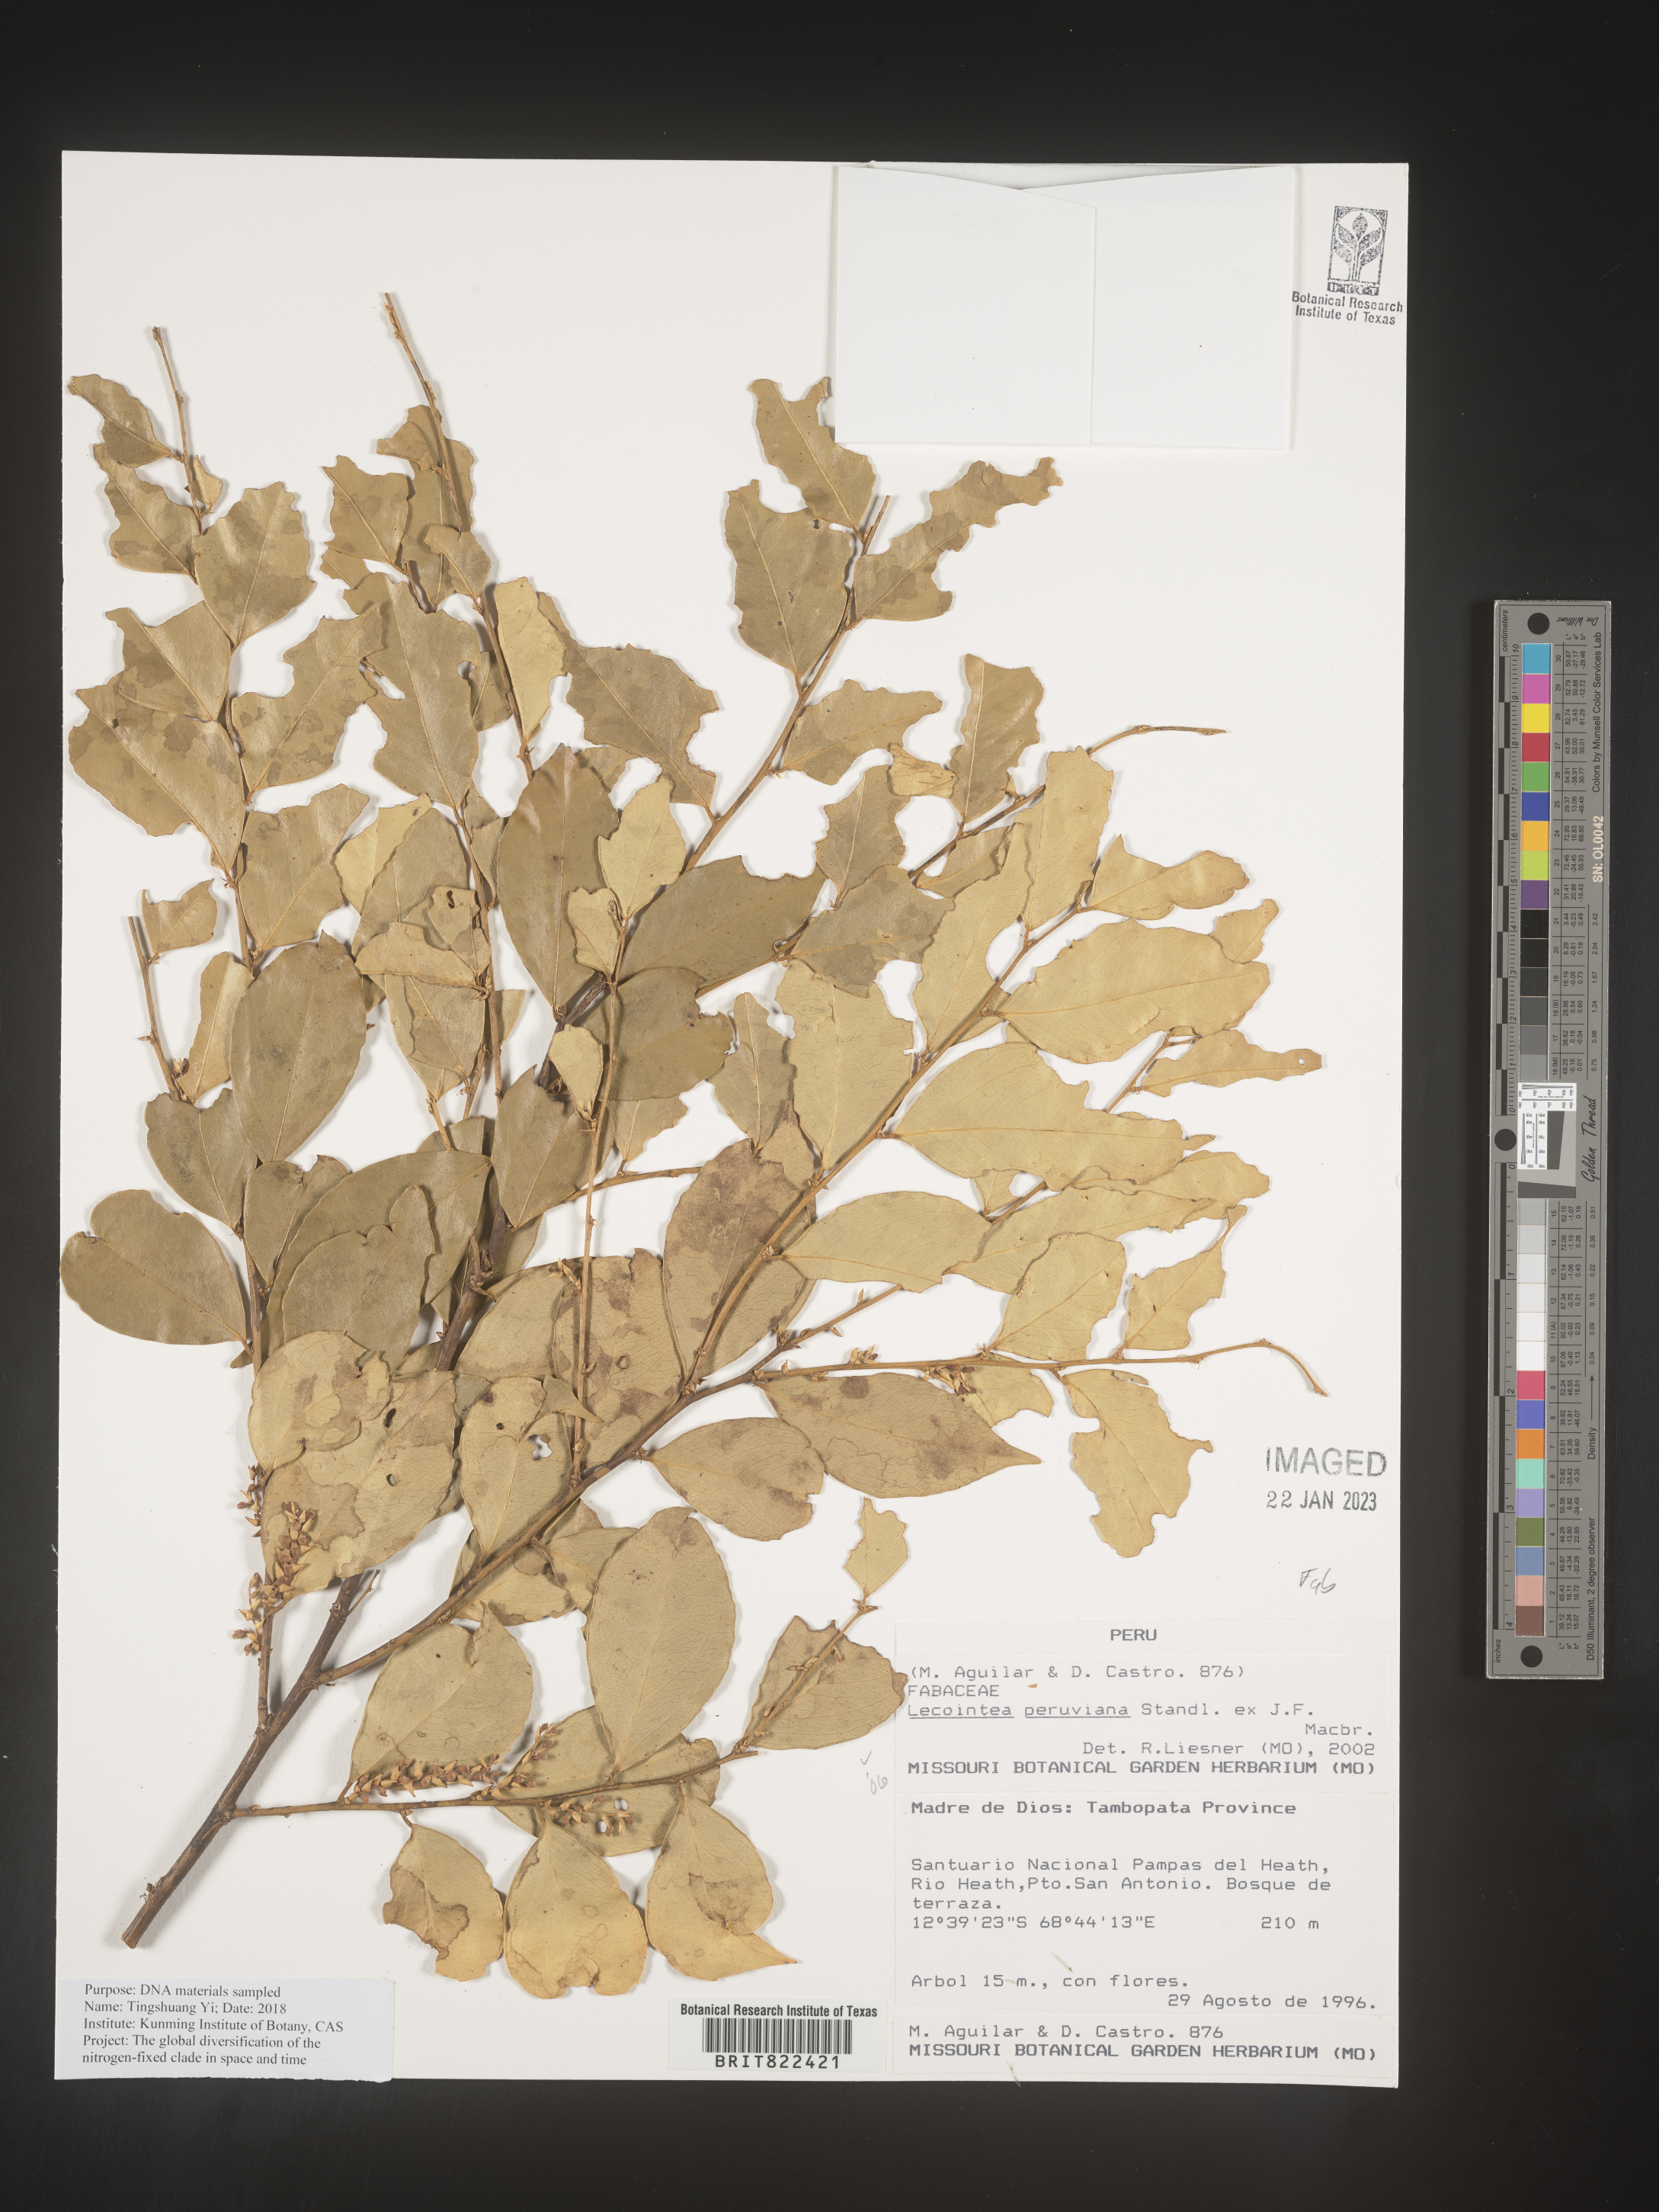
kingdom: Plantae
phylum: Tracheophyta
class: Magnoliopsida
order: Fabales
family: Fabaceae
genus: Lecointea
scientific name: Lecointea
